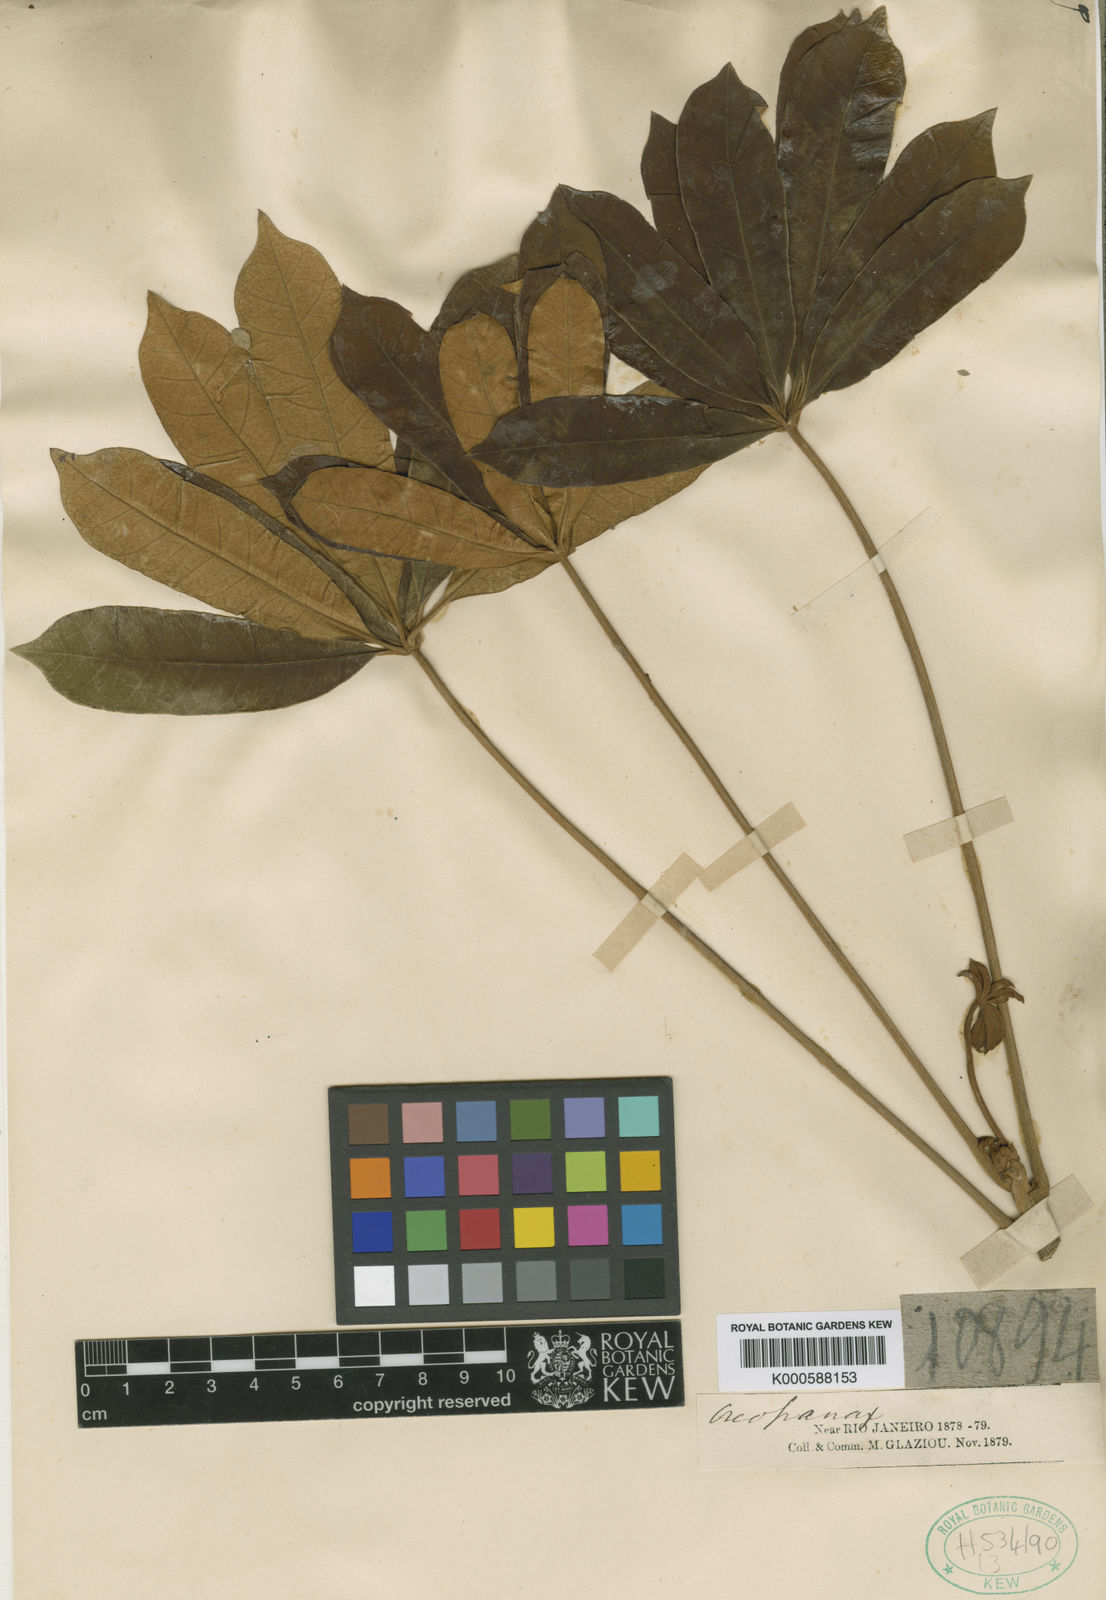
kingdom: Plantae
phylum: Tracheophyta
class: Magnoliopsida
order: Apiales
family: Araliaceae
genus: Didymopanax
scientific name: Didymopanax vinosus
